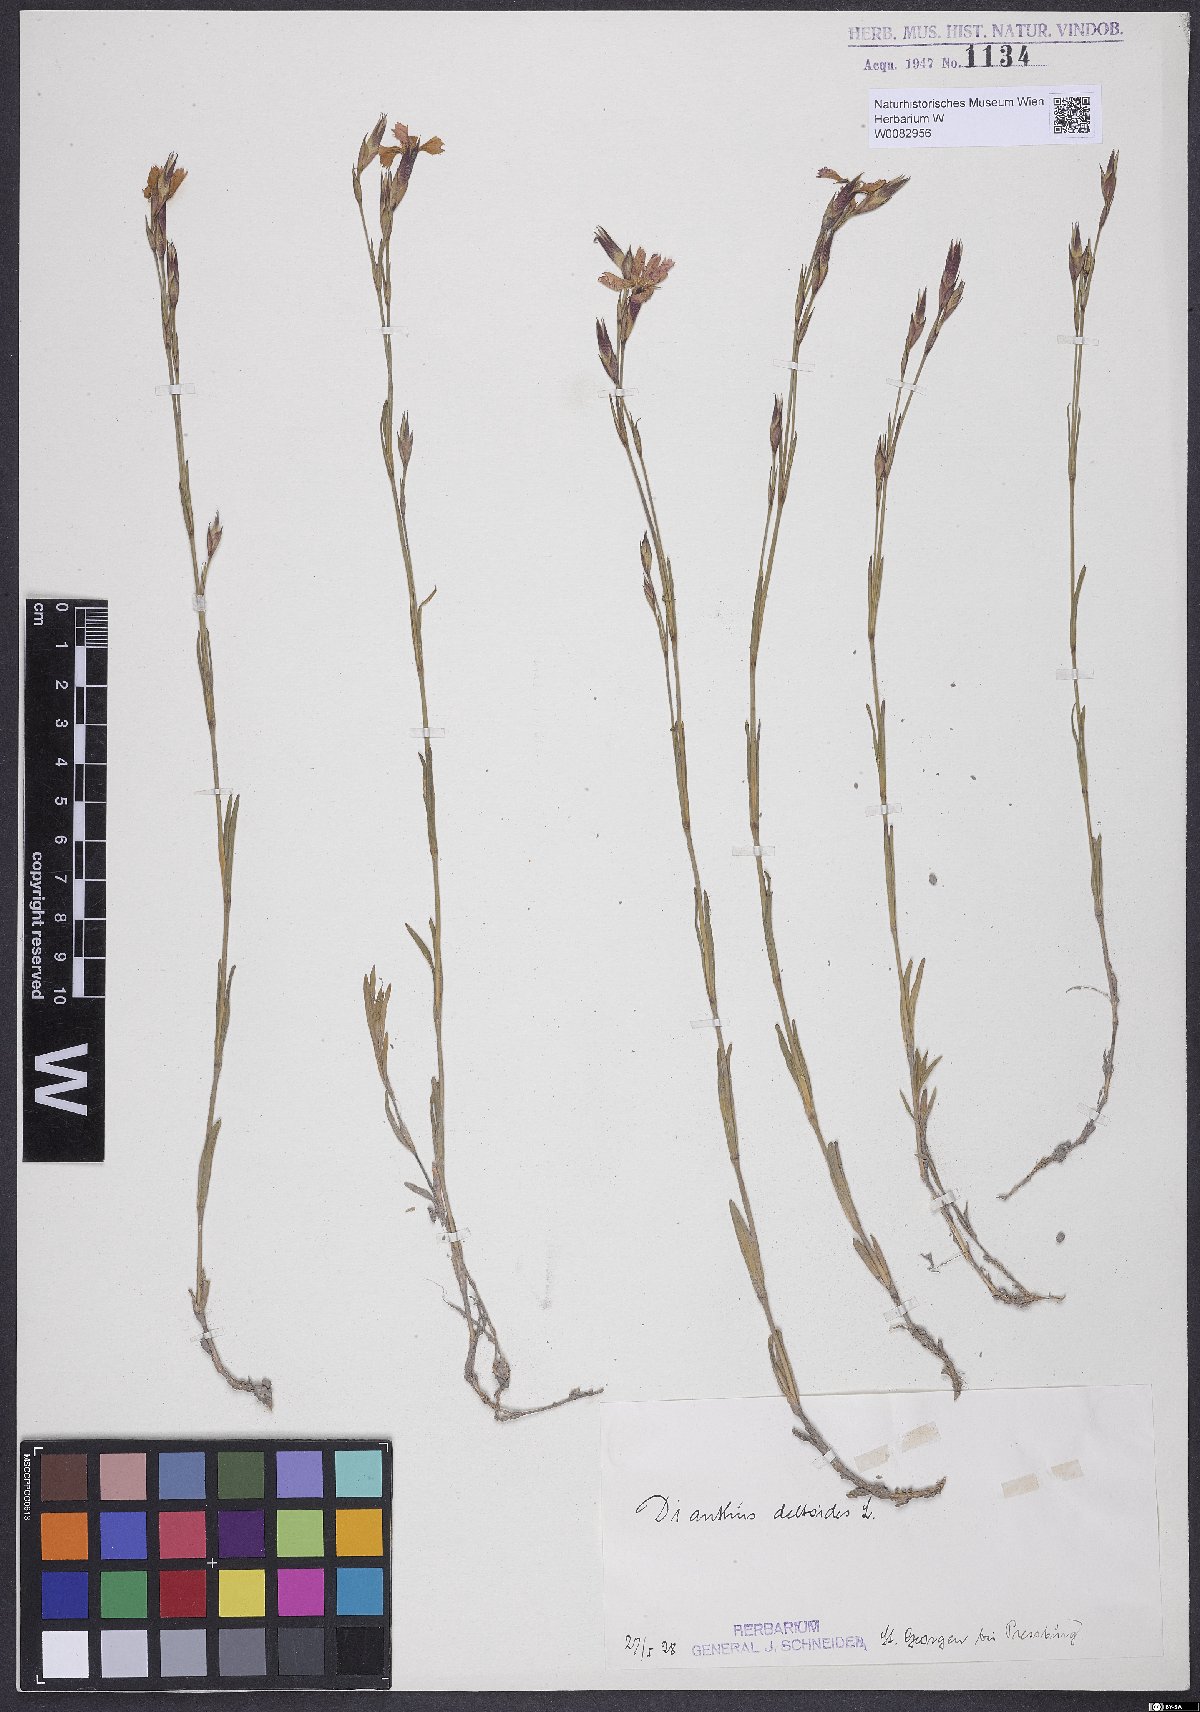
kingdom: Plantae
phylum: Tracheophyta
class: Magnoliopsida
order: Caryophyllales
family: Caryophyllaceae
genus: Dianthus
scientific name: Dianthus deltoides
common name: Maiden pink
